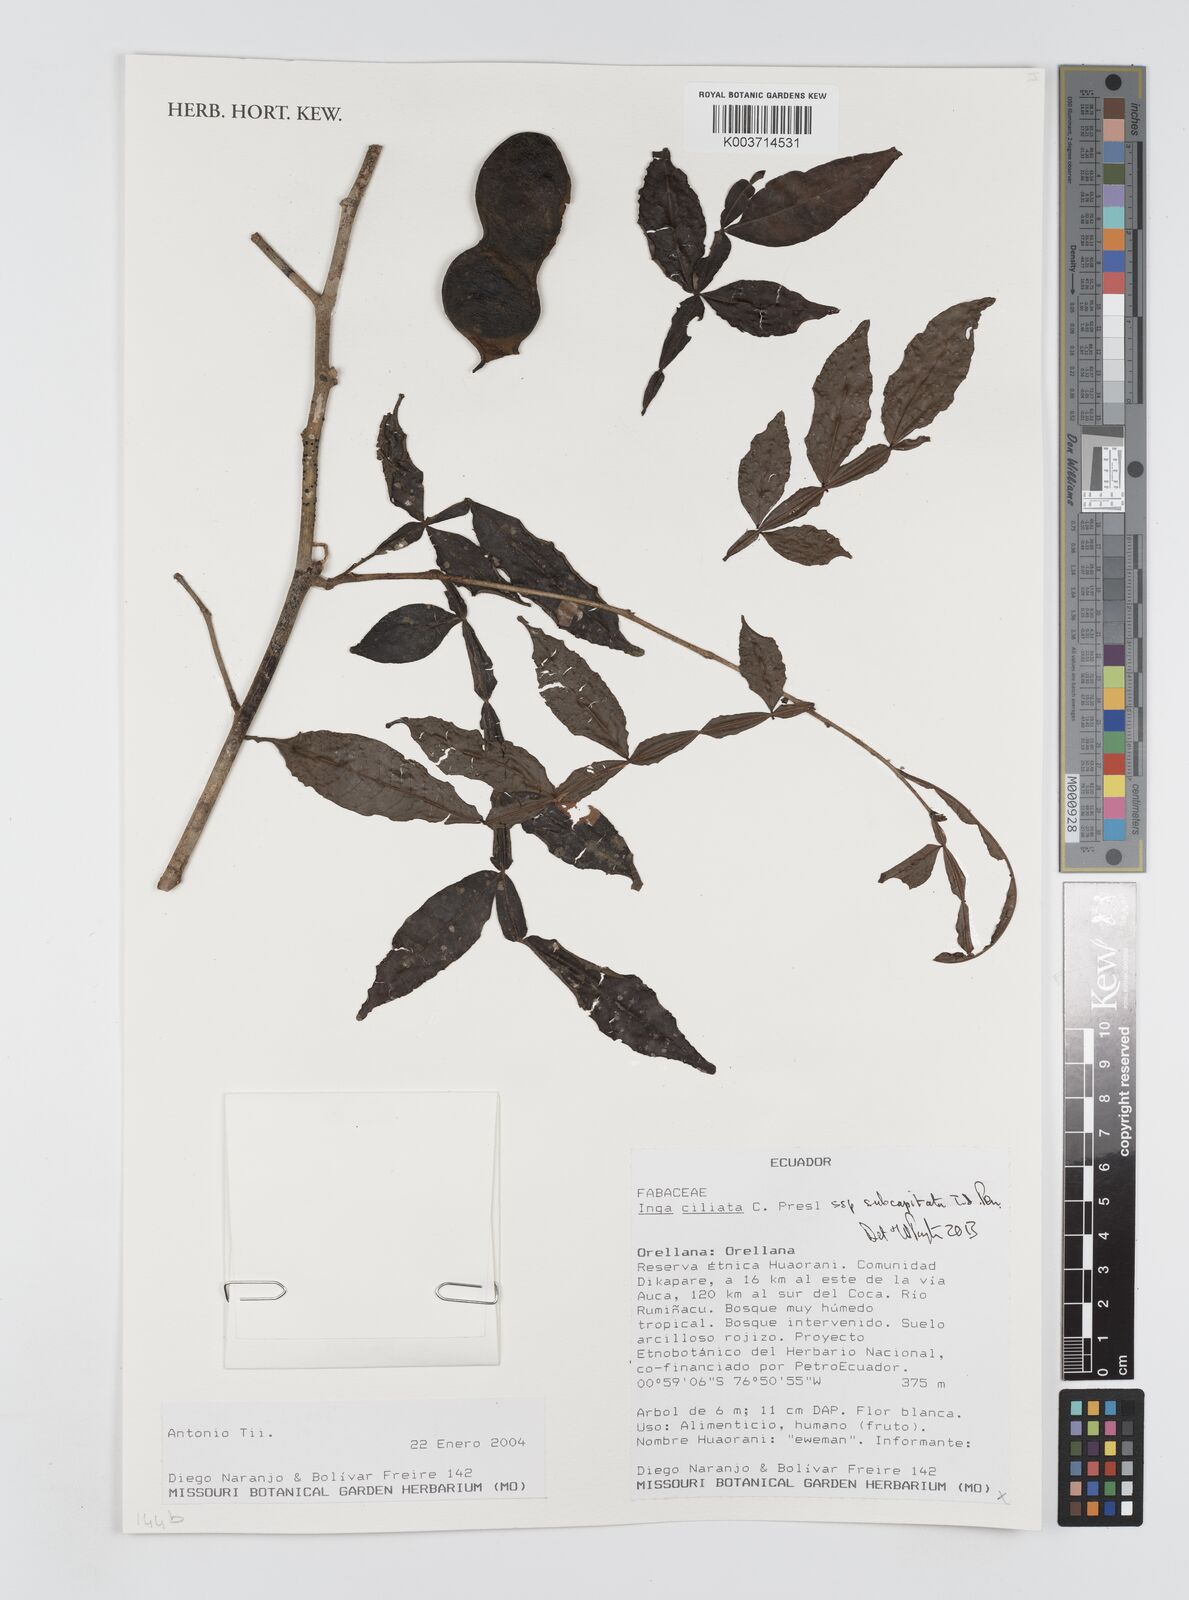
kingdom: Plantae
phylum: Tracheophyta
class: Magnoliopsida
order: Fabales
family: Fabaceae
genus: Inga
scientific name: Inga ciliata
